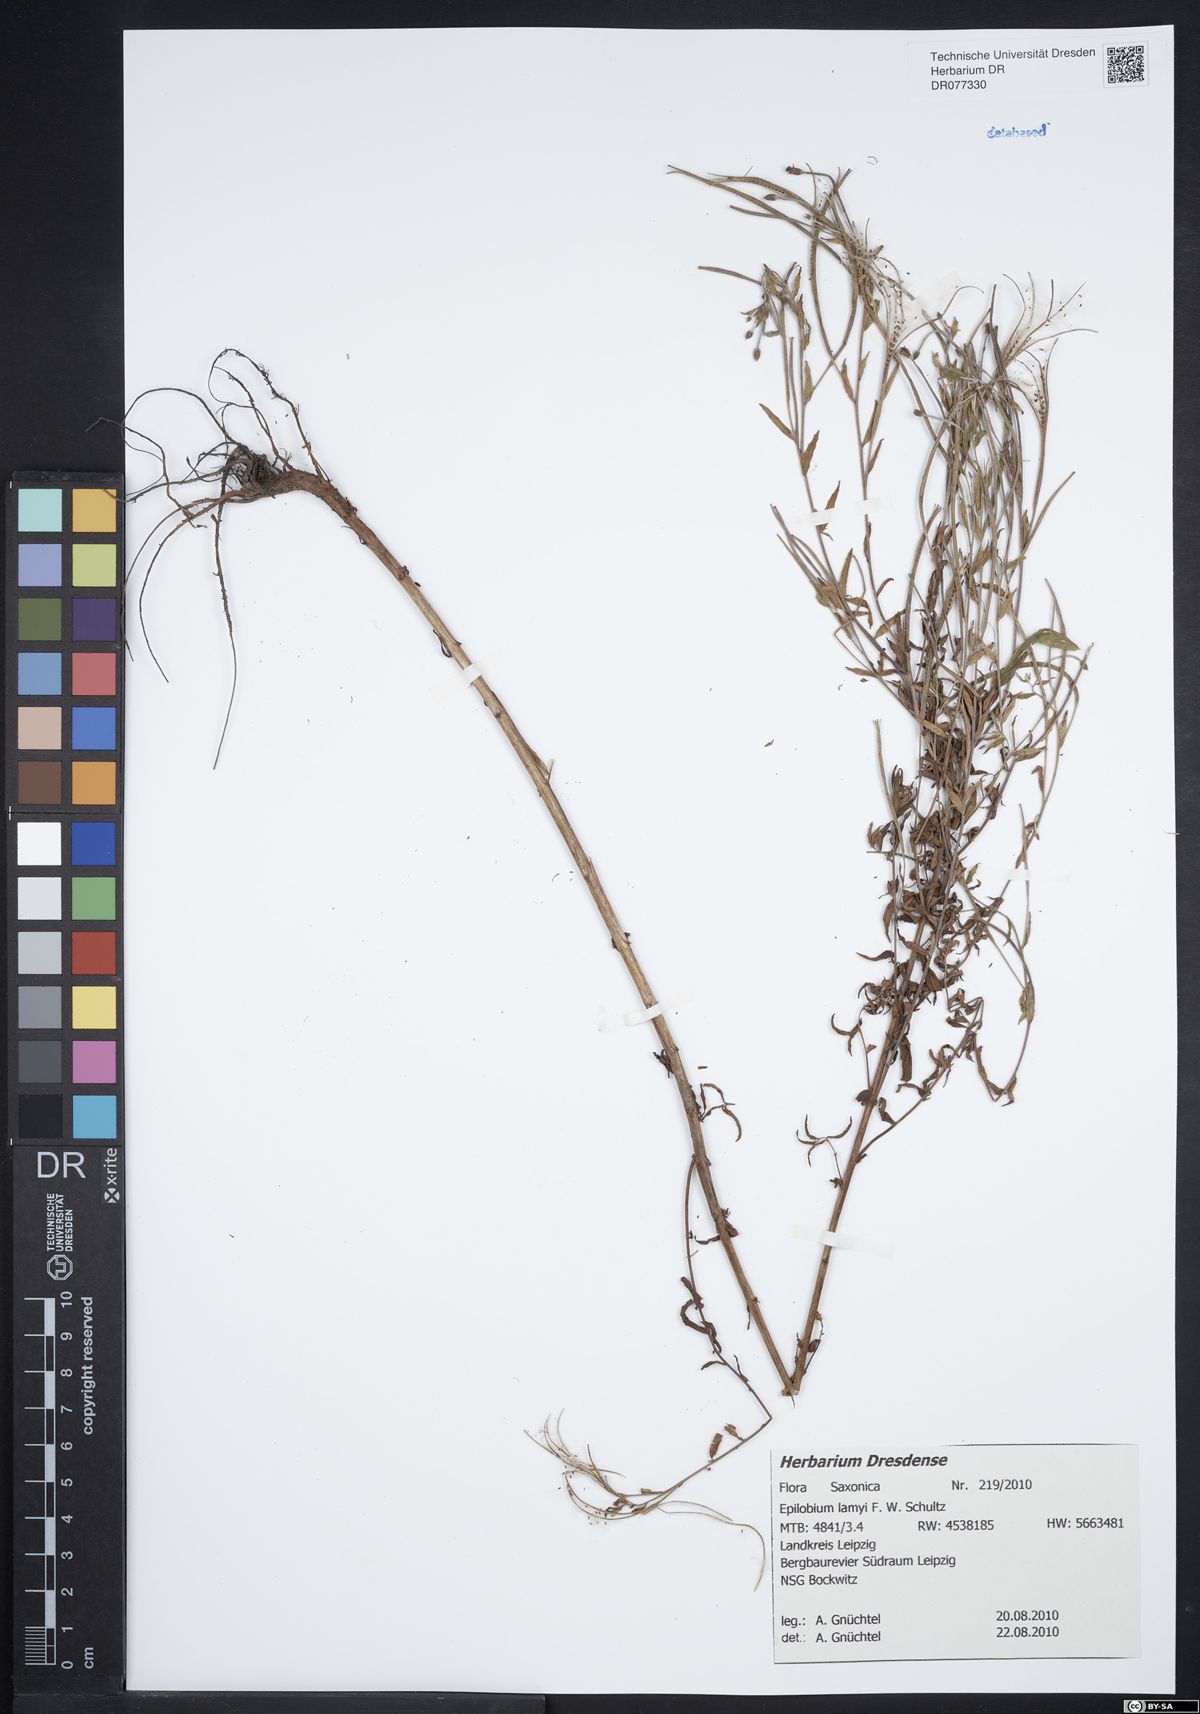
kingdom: Plantae
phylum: Tracheophyta
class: Magnoliopsida
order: Myrtales
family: Onagraceae
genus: Epilobium
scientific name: Epilobium lamyi
